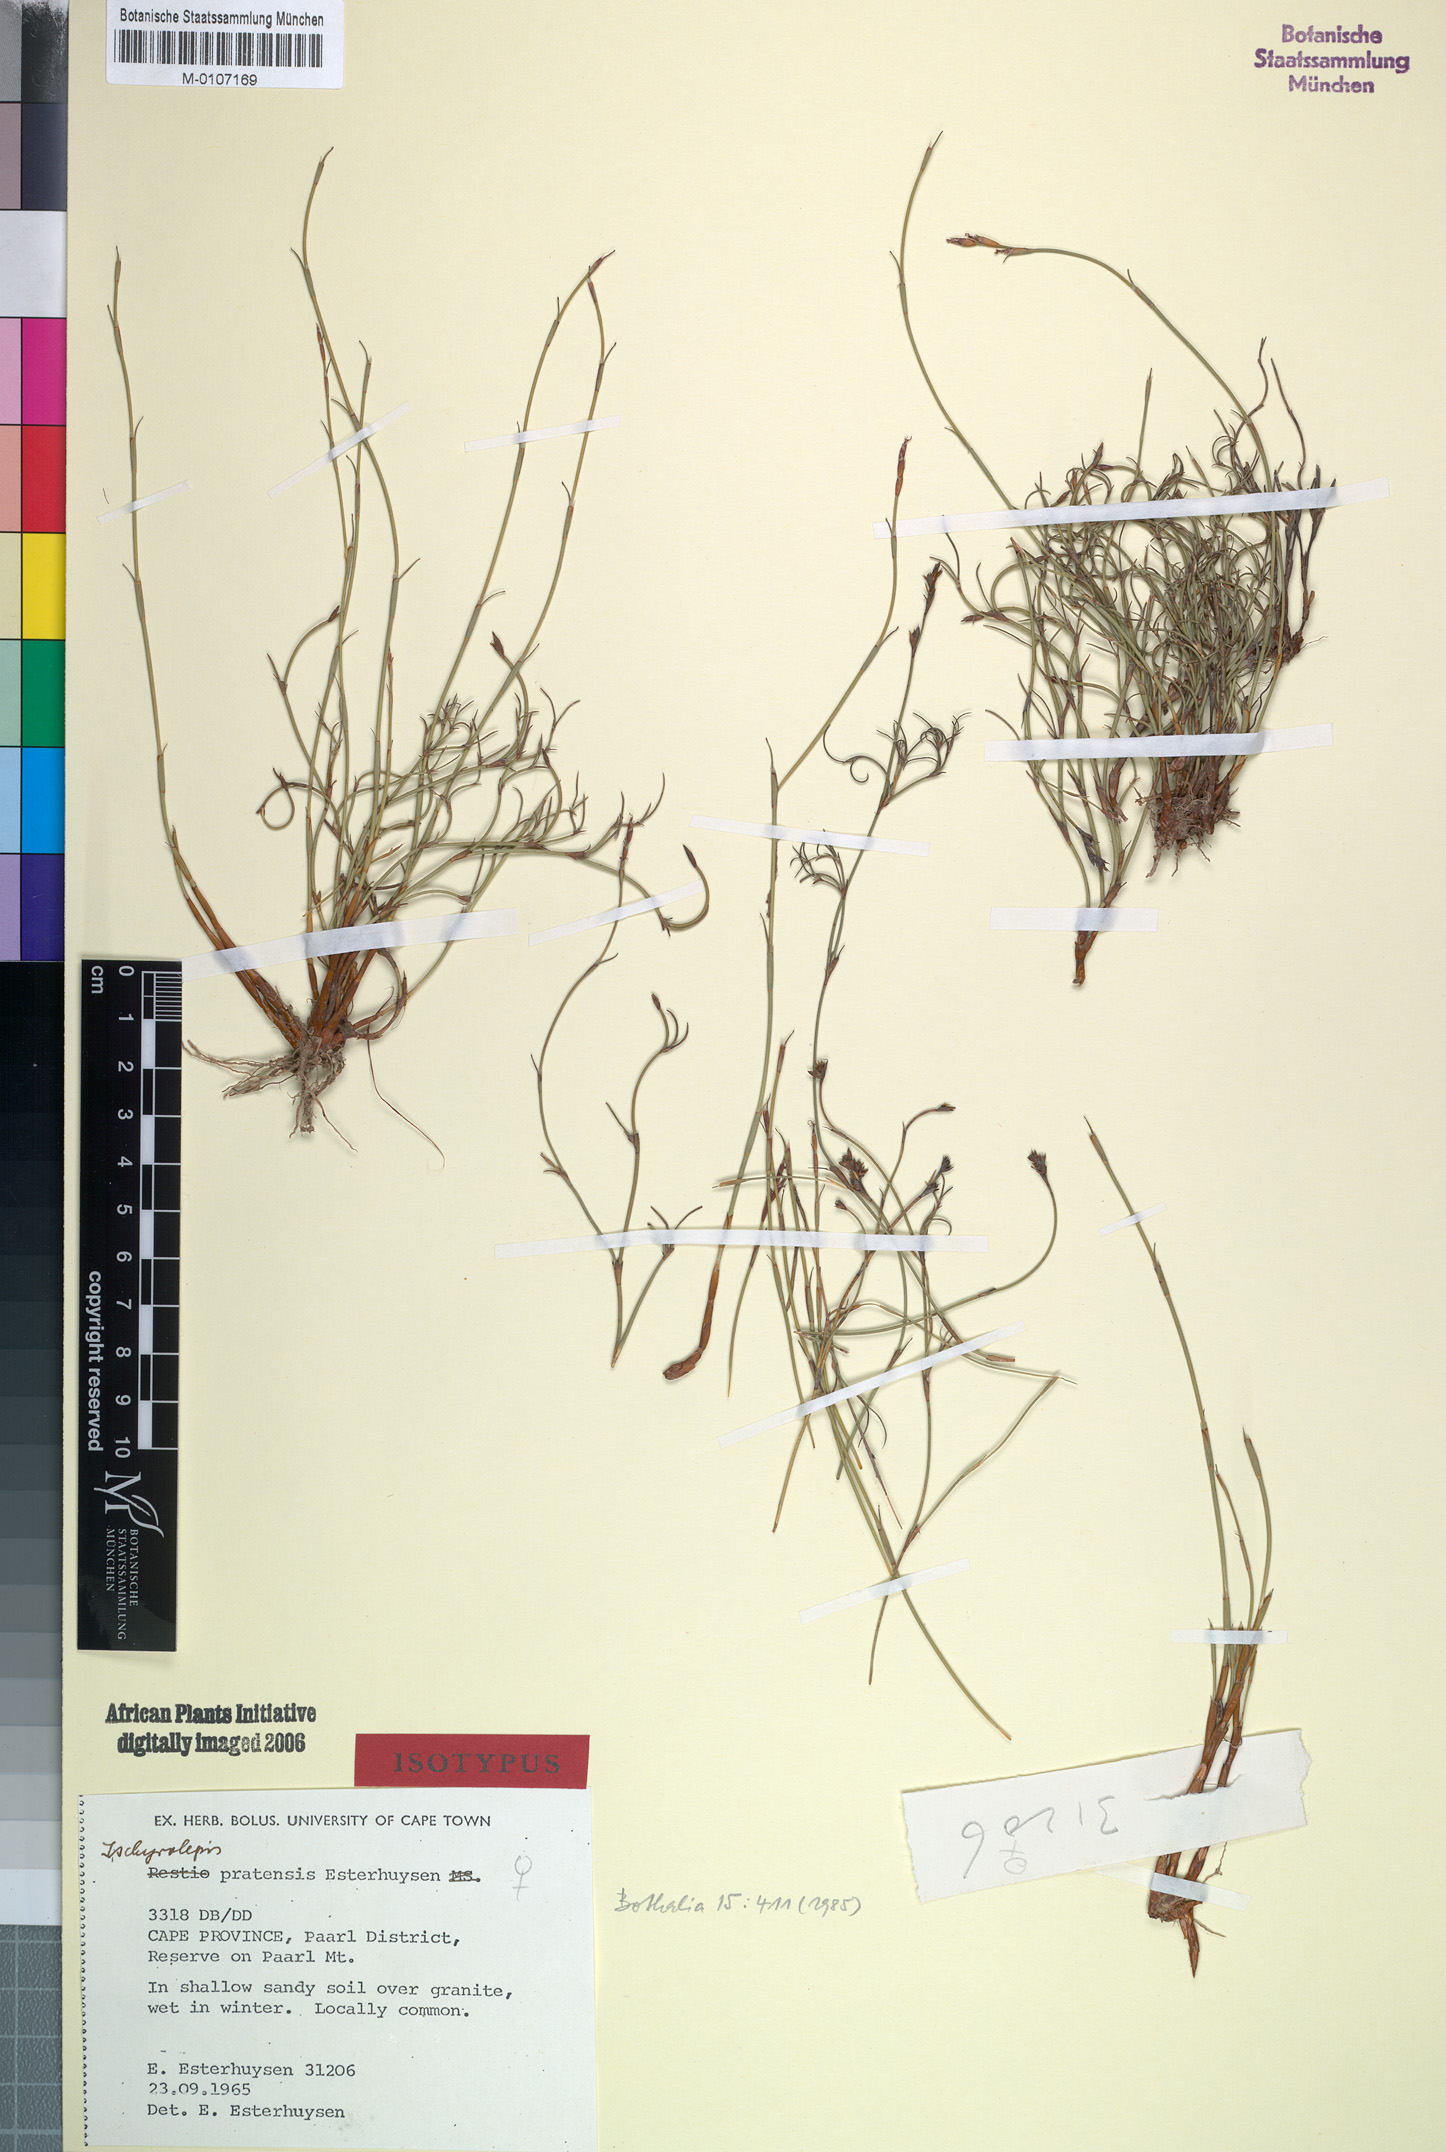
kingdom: Plantae
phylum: Tracheophyta
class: Liliopsida
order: Poales
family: Restionaceae
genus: Restio
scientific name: Restio pratensis
